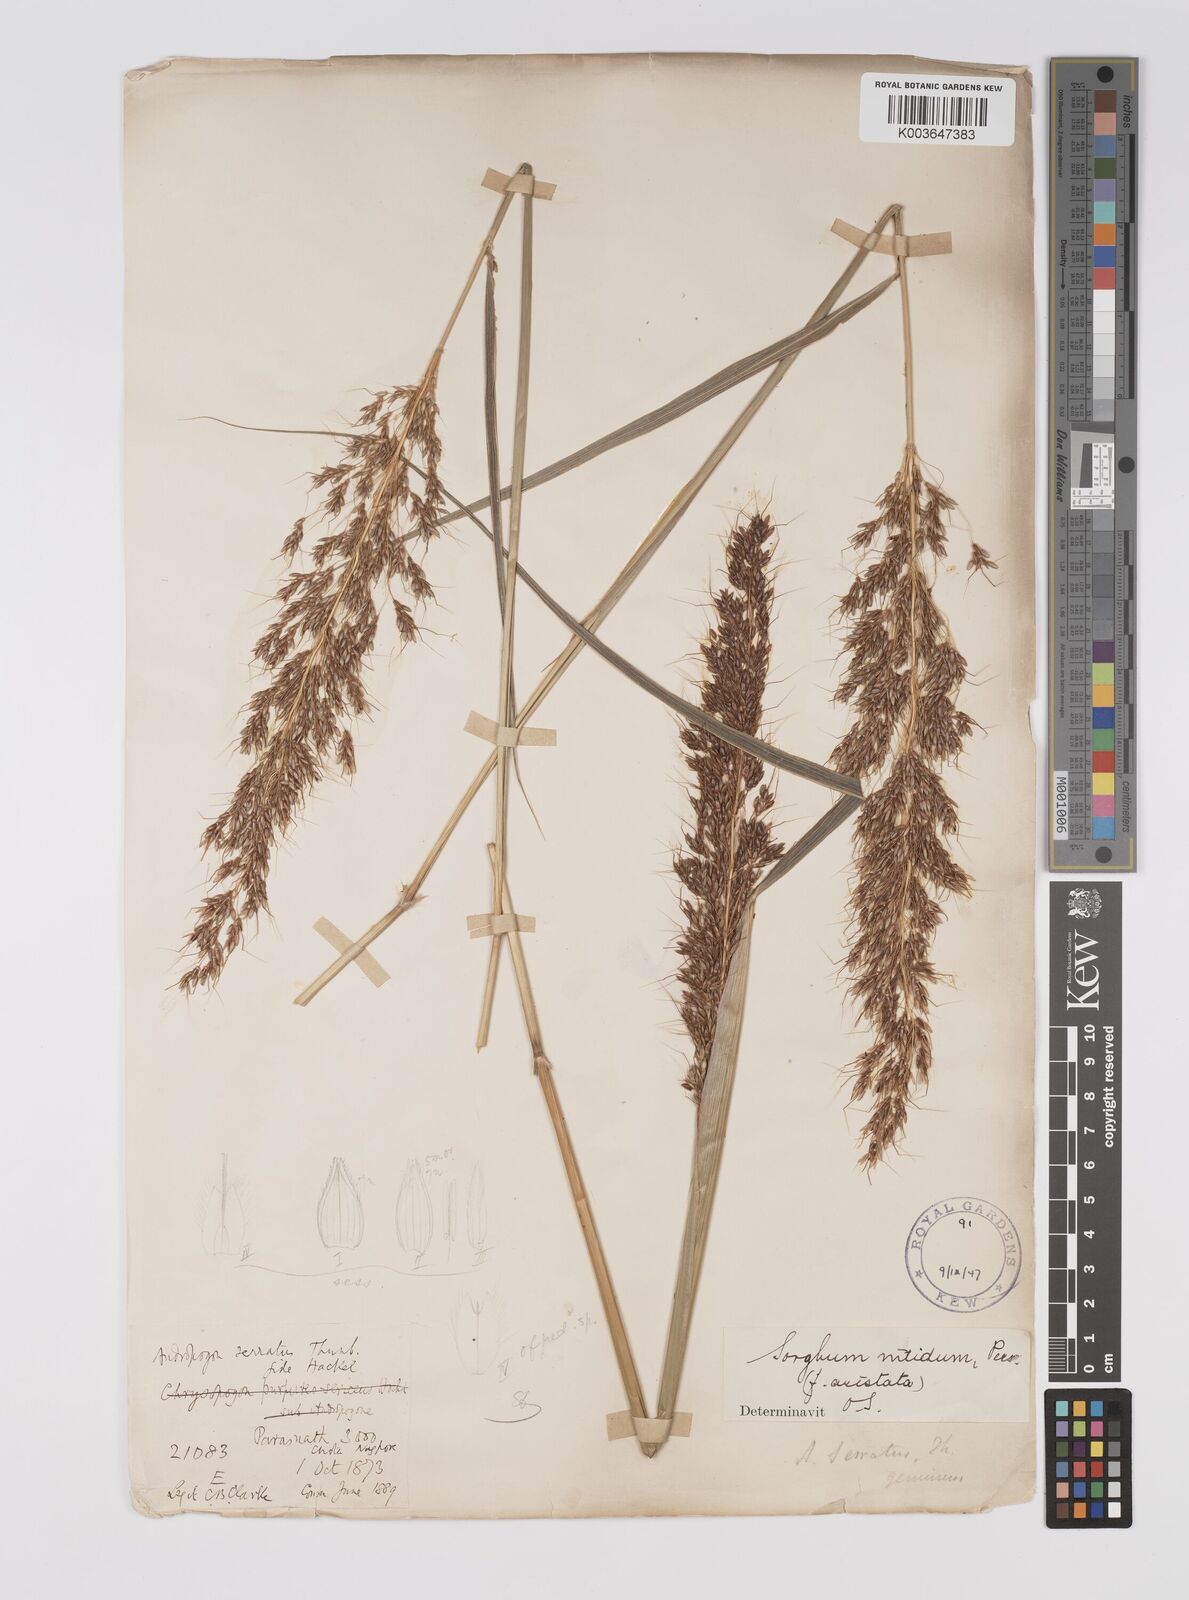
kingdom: Plantae
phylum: Tracheophyta
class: Liliopsida
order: Poales
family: Poaceae
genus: Sorghum
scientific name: Sorghum nitidum
